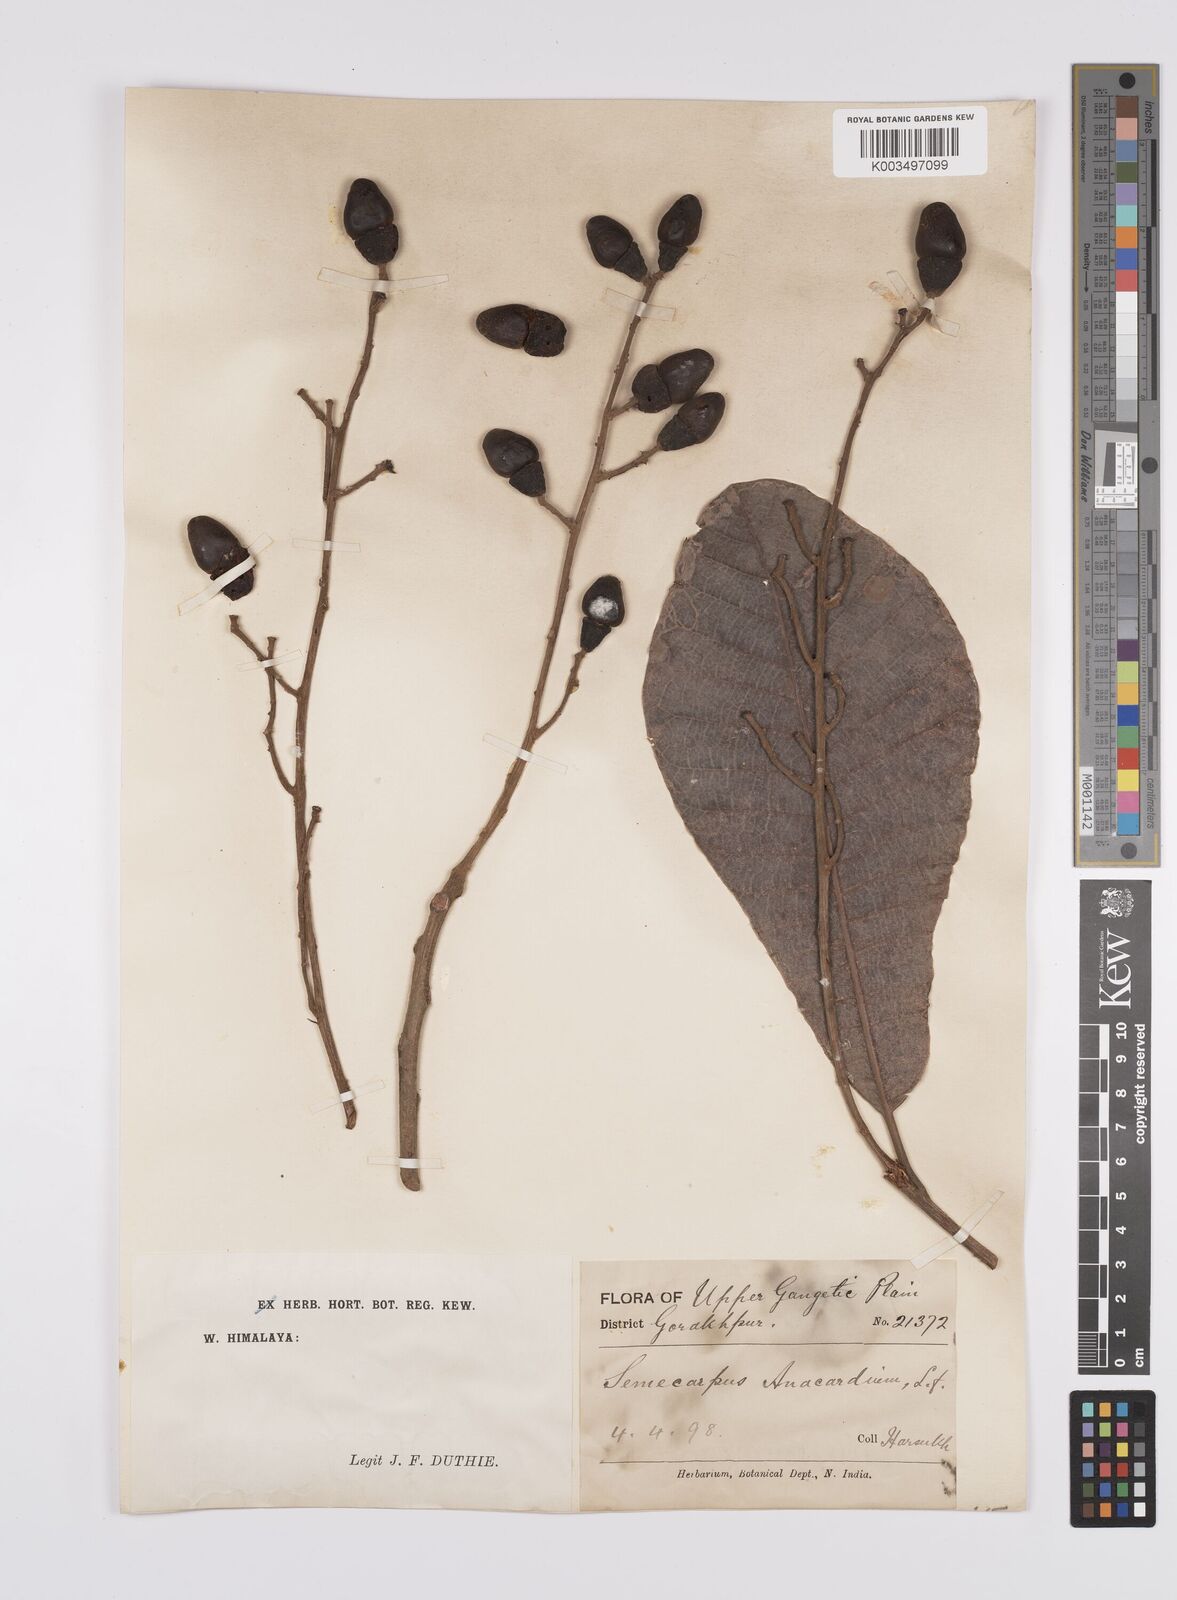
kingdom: Plantae
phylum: Tracheophyta
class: Magnoliopsida
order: Sapindales
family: Anacardiaceae
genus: Semecarpus
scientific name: Semecarpus anacardium
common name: Marking nut-tree
